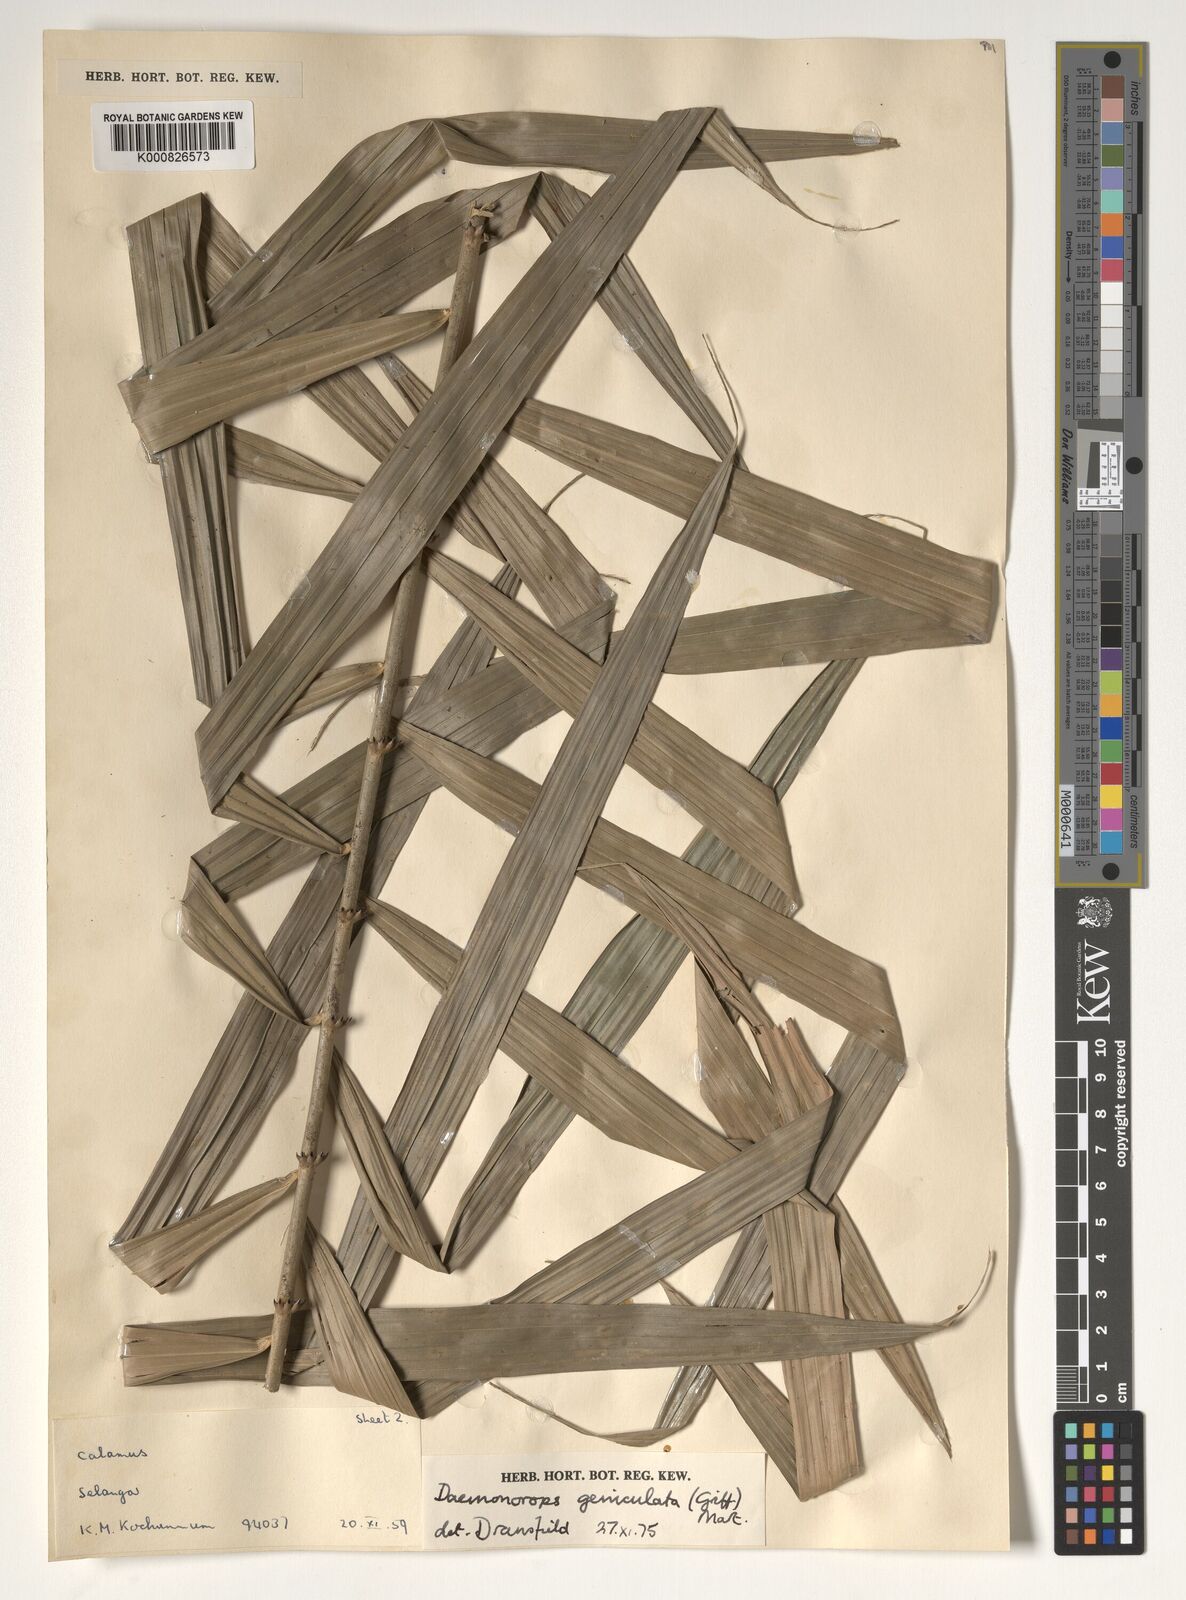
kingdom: Plantae
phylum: Tracheophyta
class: Liliopsida
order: Arecales
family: Arecaceae
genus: Calamus
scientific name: Calamus geniculatus
